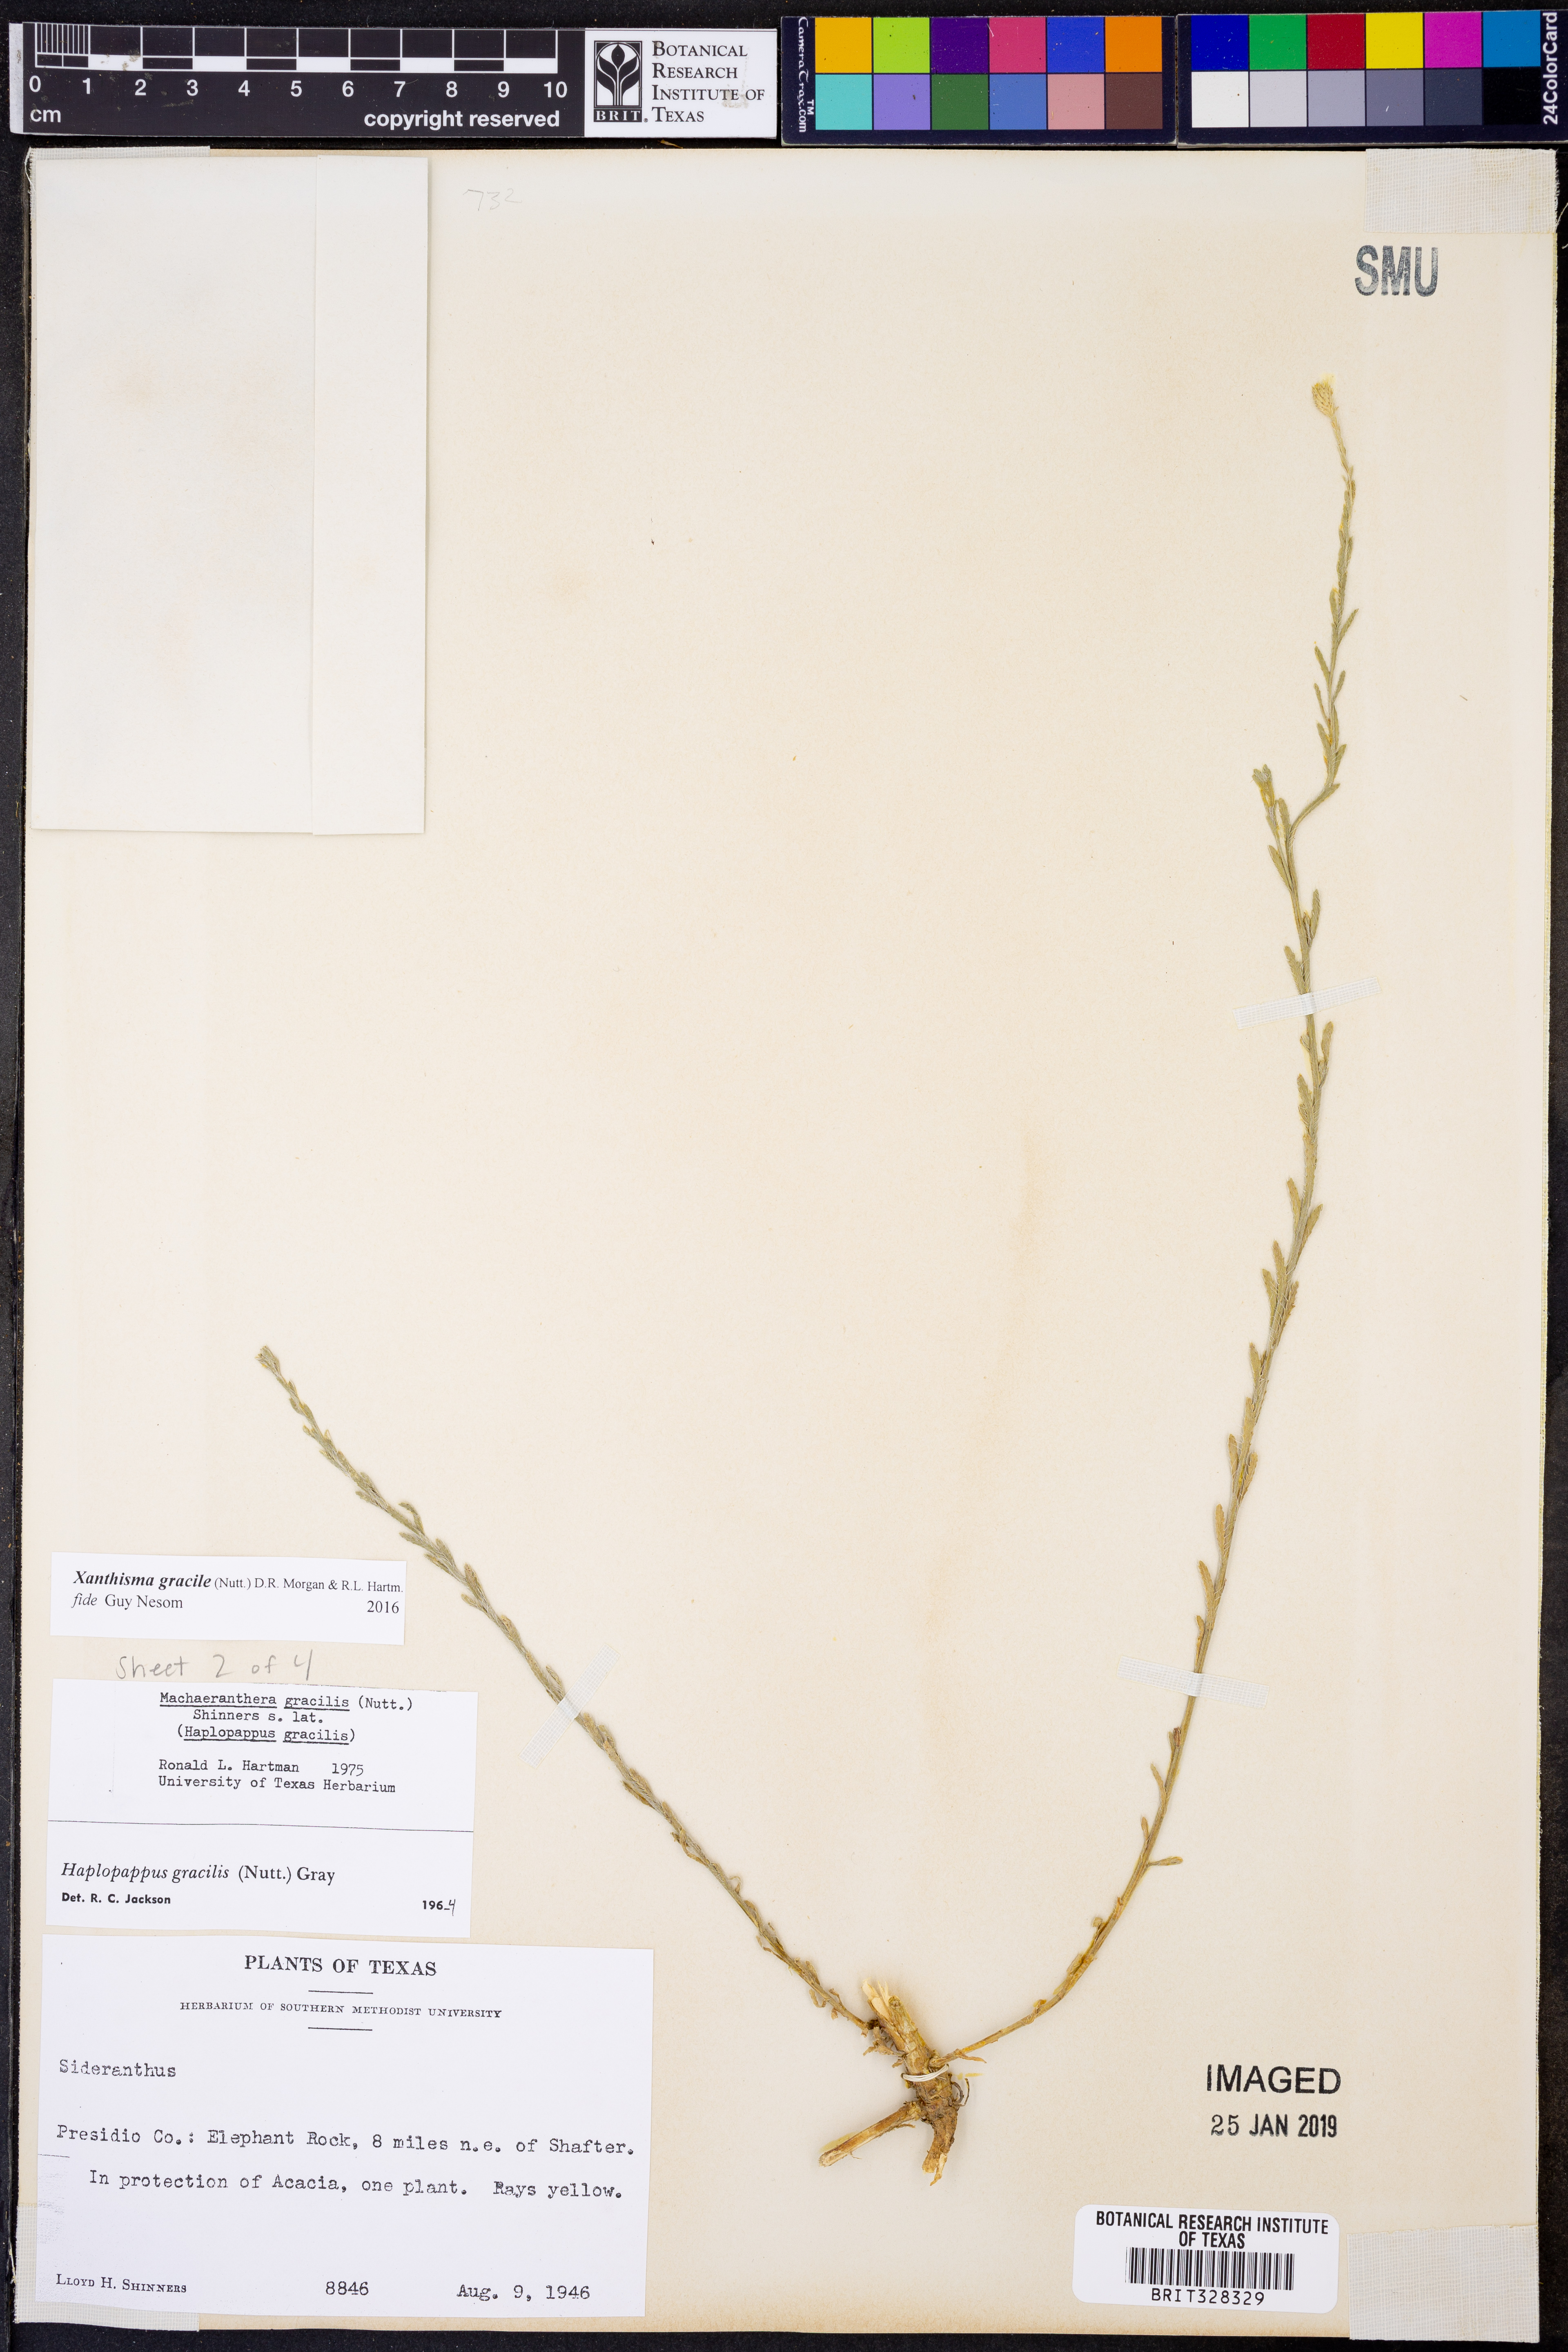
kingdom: Plantae
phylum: Tracheophyta
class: Magnoliopsida
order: Asterales
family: Asteraceae
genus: Xanthisma
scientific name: Xanthisma gracile
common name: Slender goldenweed
